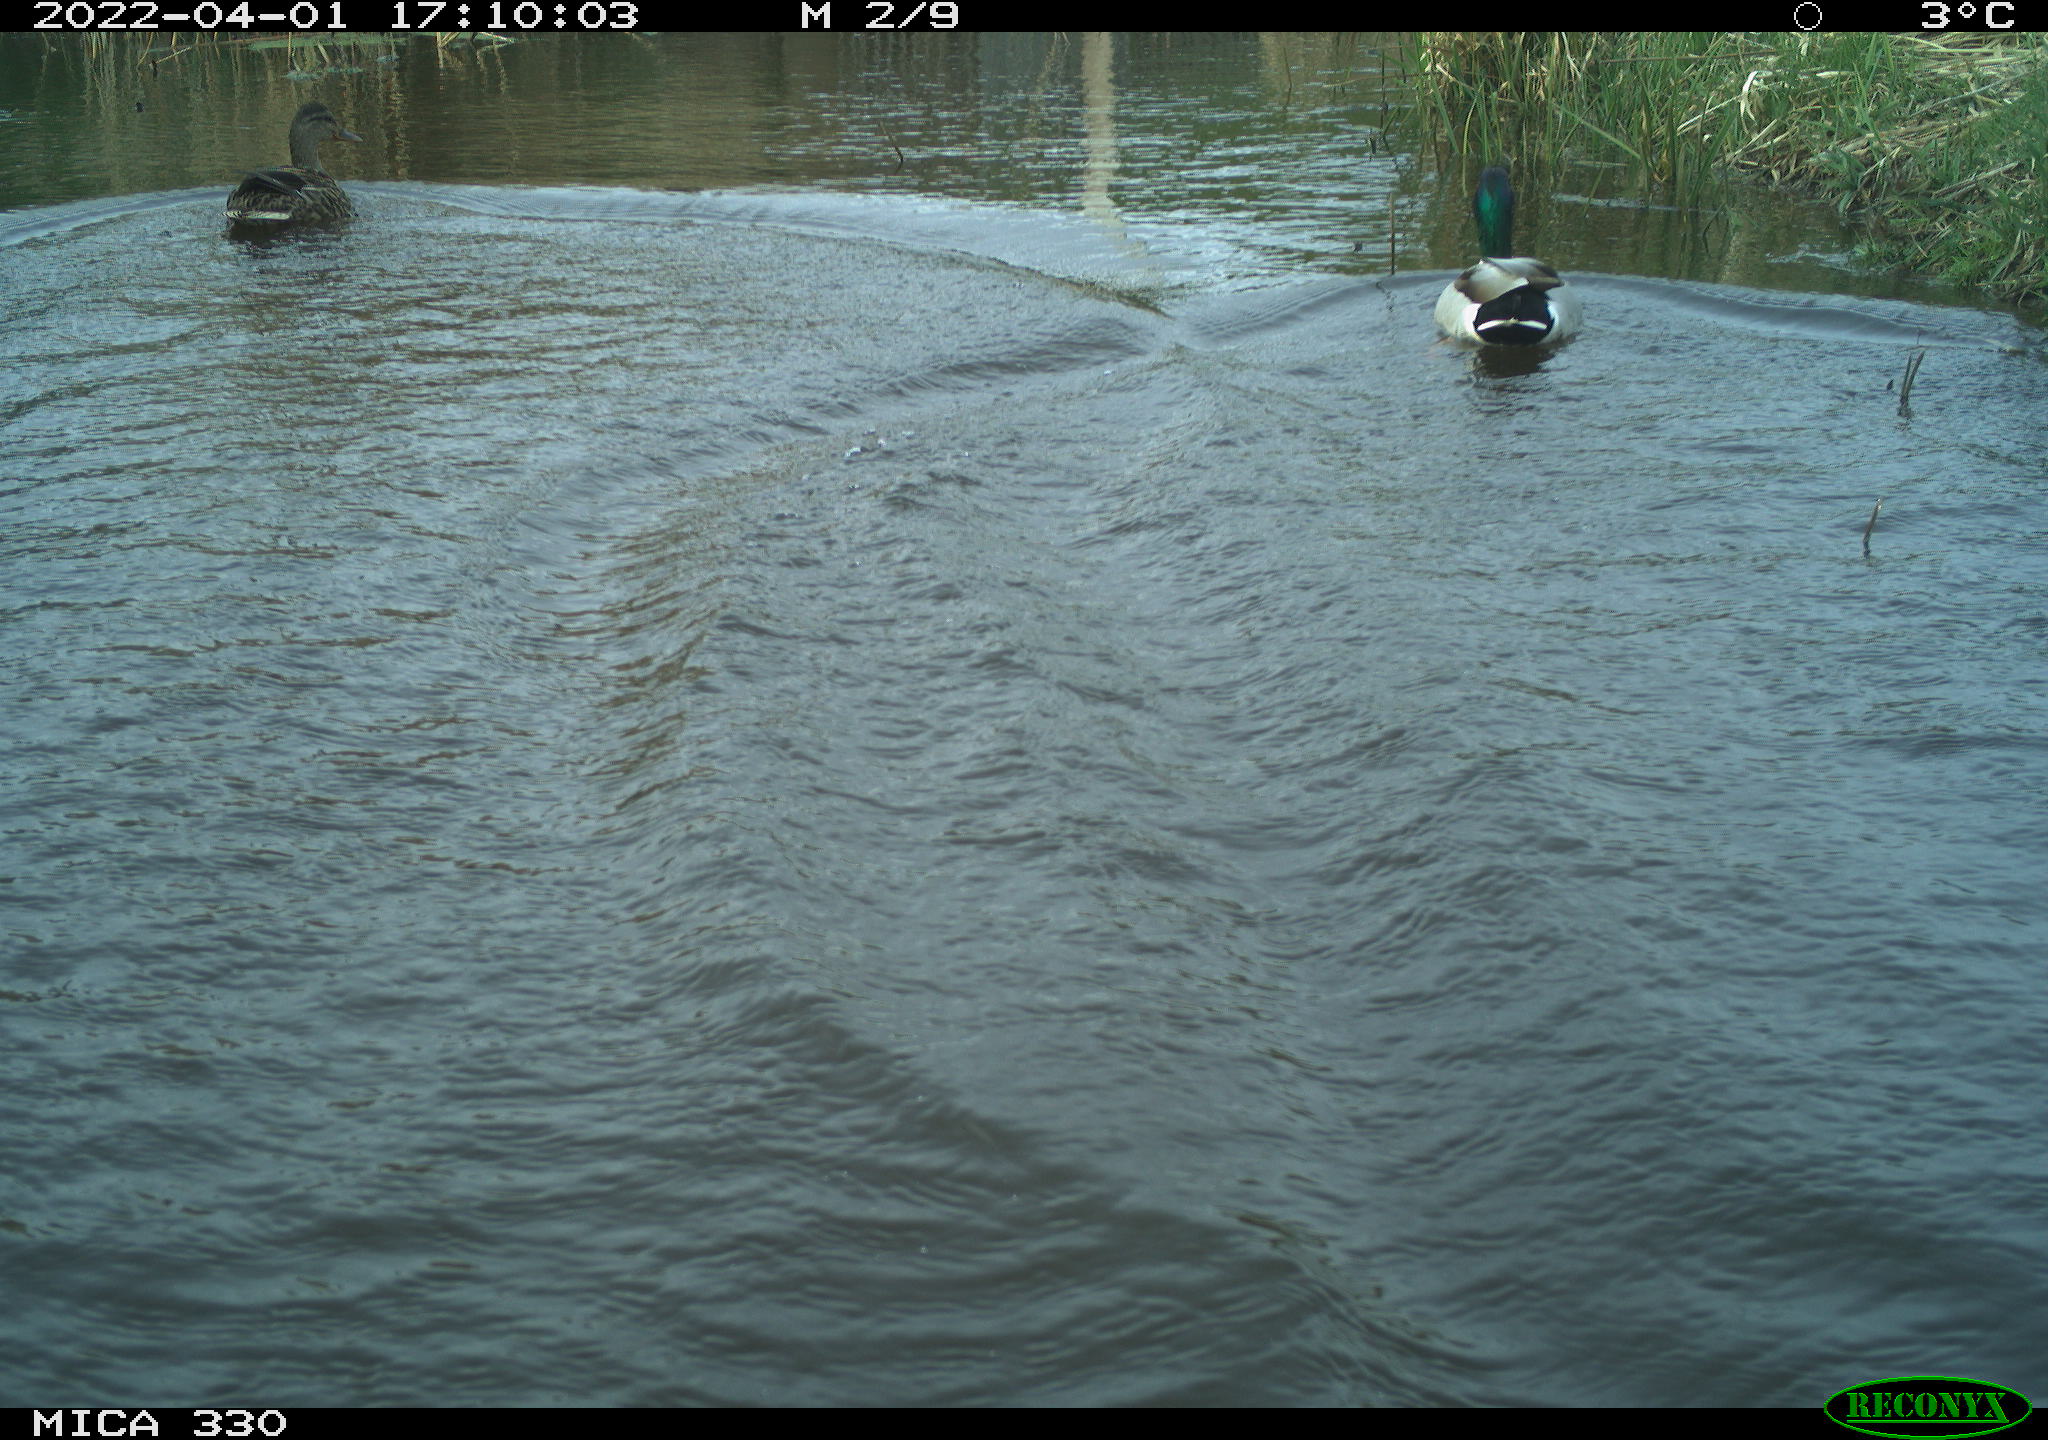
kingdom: Animalia
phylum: Chordata
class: Aves
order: Anseriformes
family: Anatidae
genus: Anas
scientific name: Anas platyrhynchos
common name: Mallard
